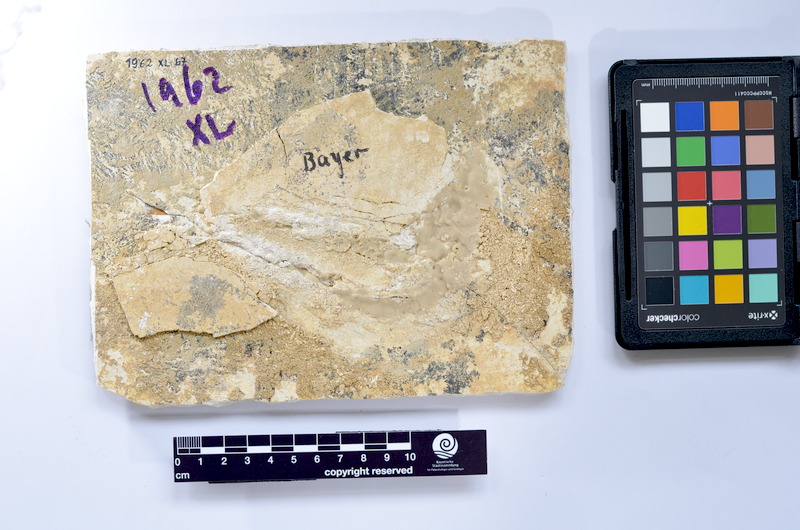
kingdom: Animalia
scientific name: Animalia
